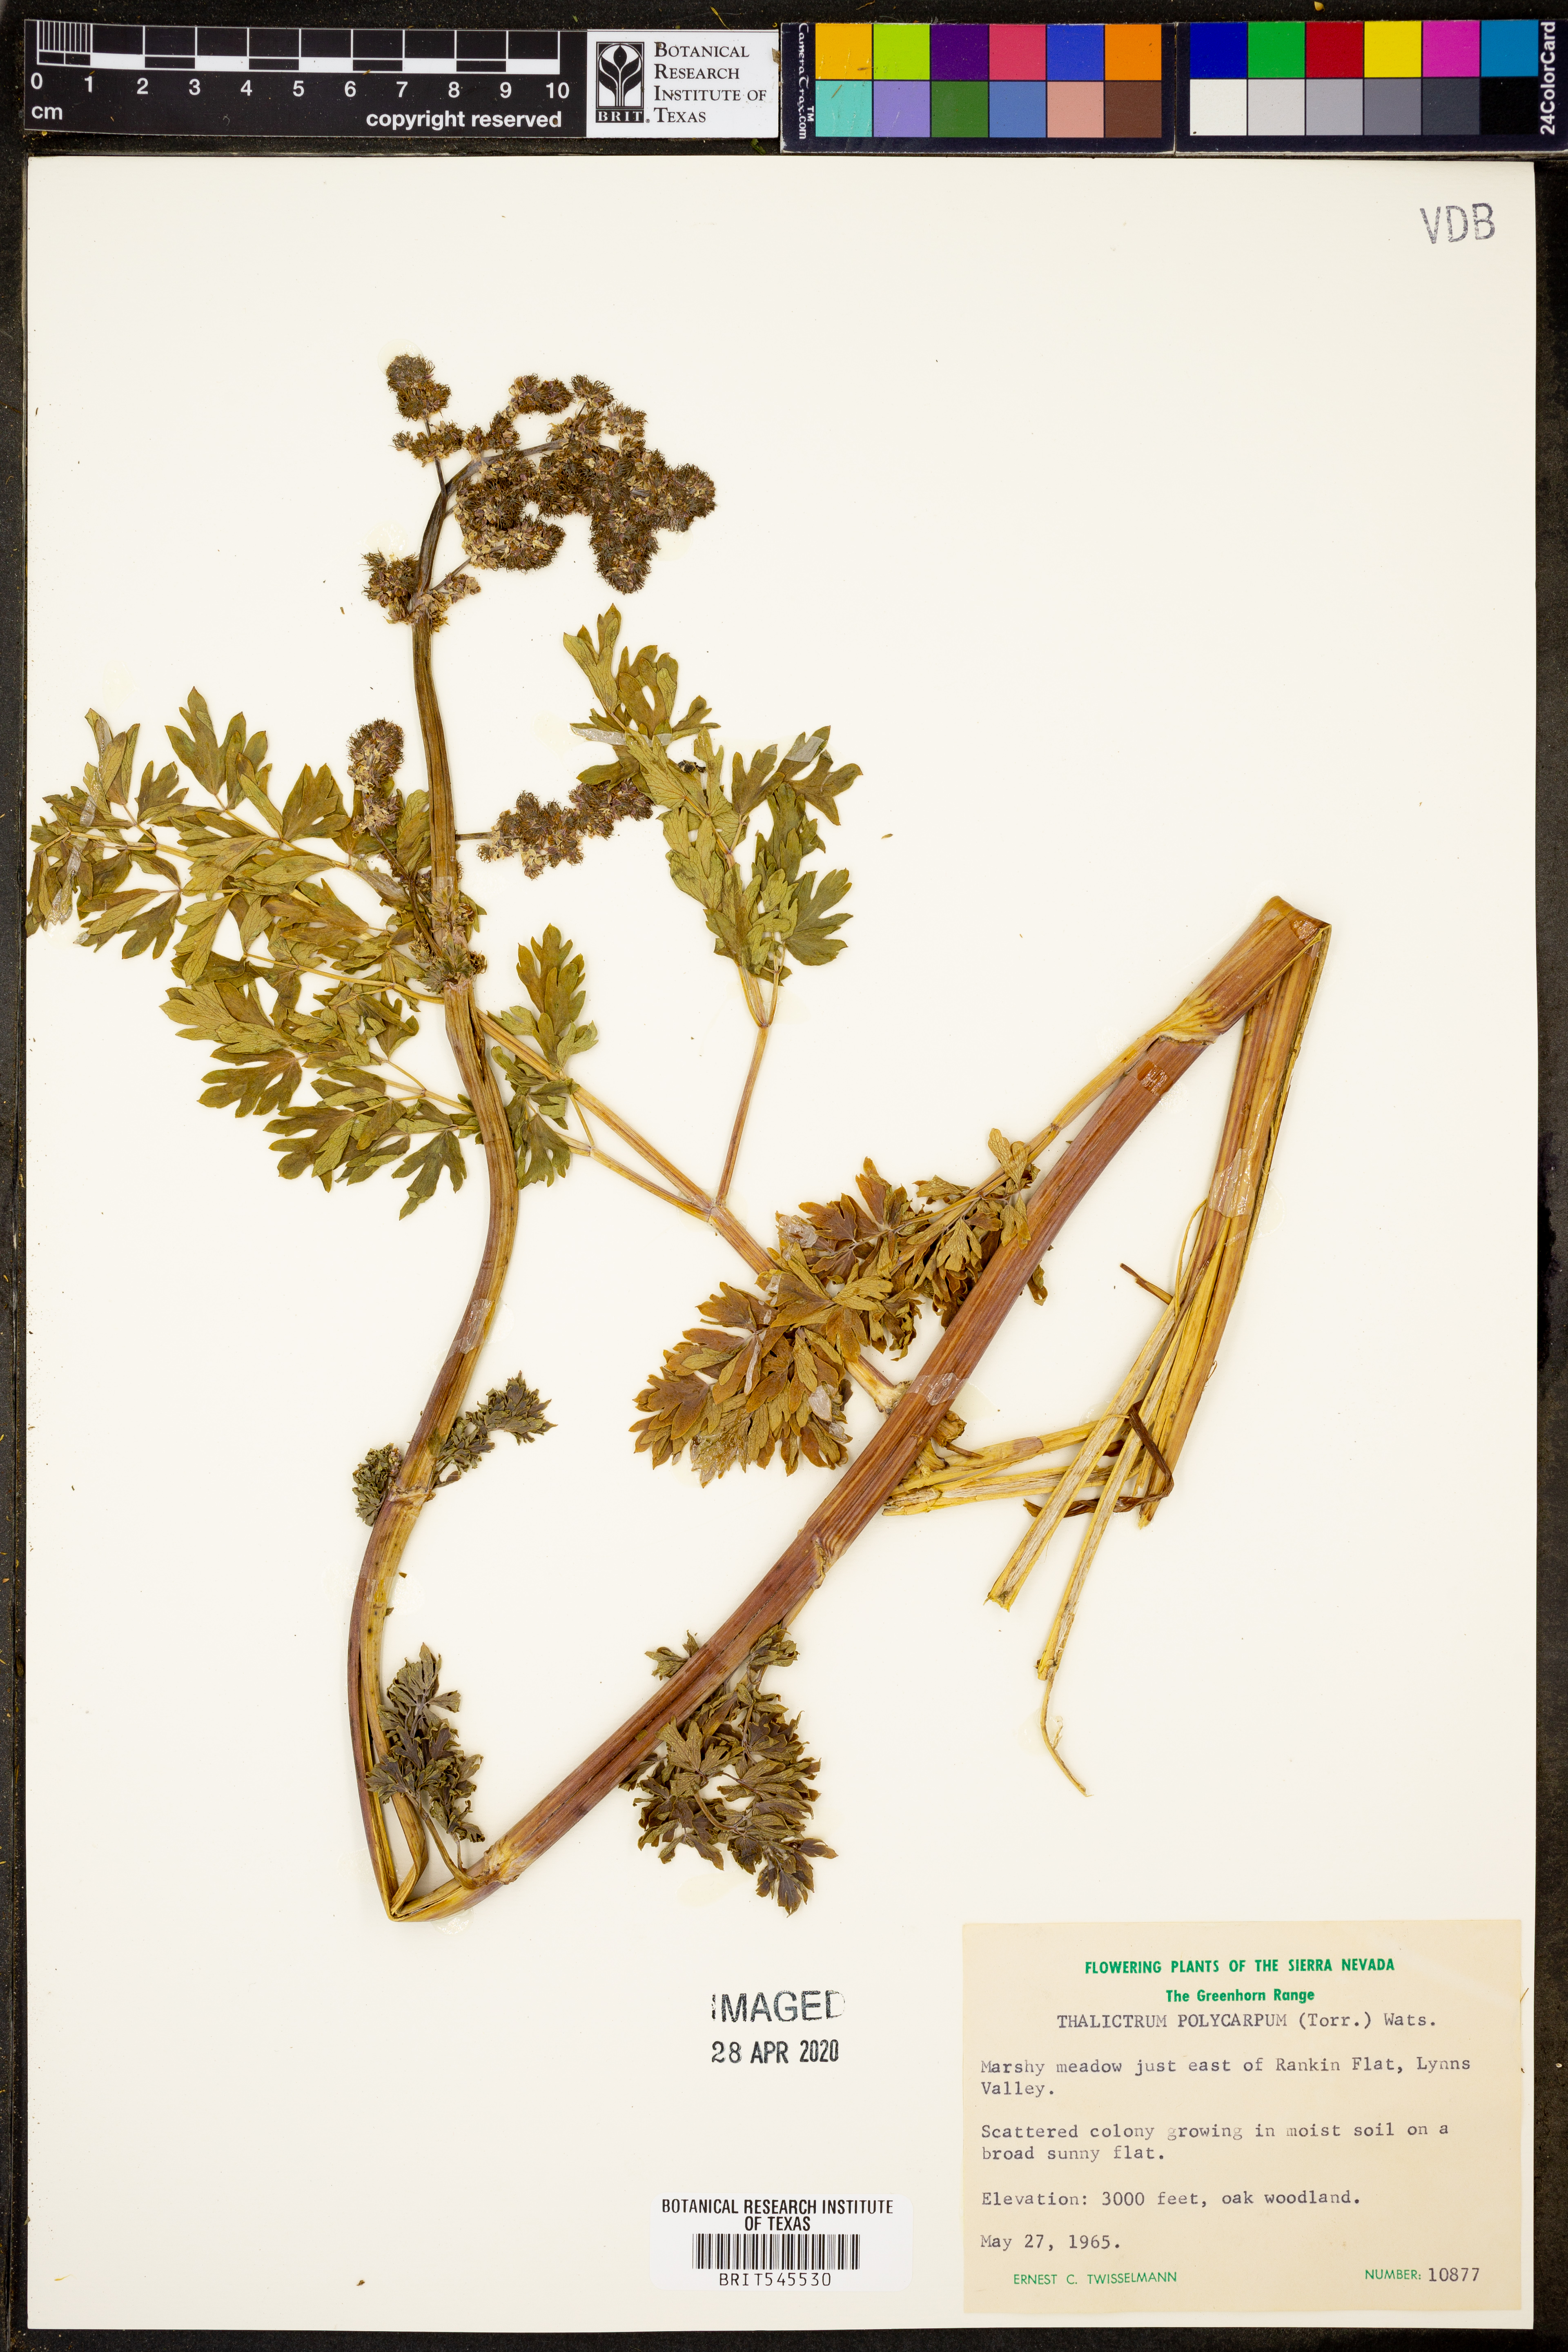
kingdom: Plantae
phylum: Tracheophyta
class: Magnoliopsida
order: Ranunculales
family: Ranunculaceae
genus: Thalictrum
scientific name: Thalictrum fendleri
